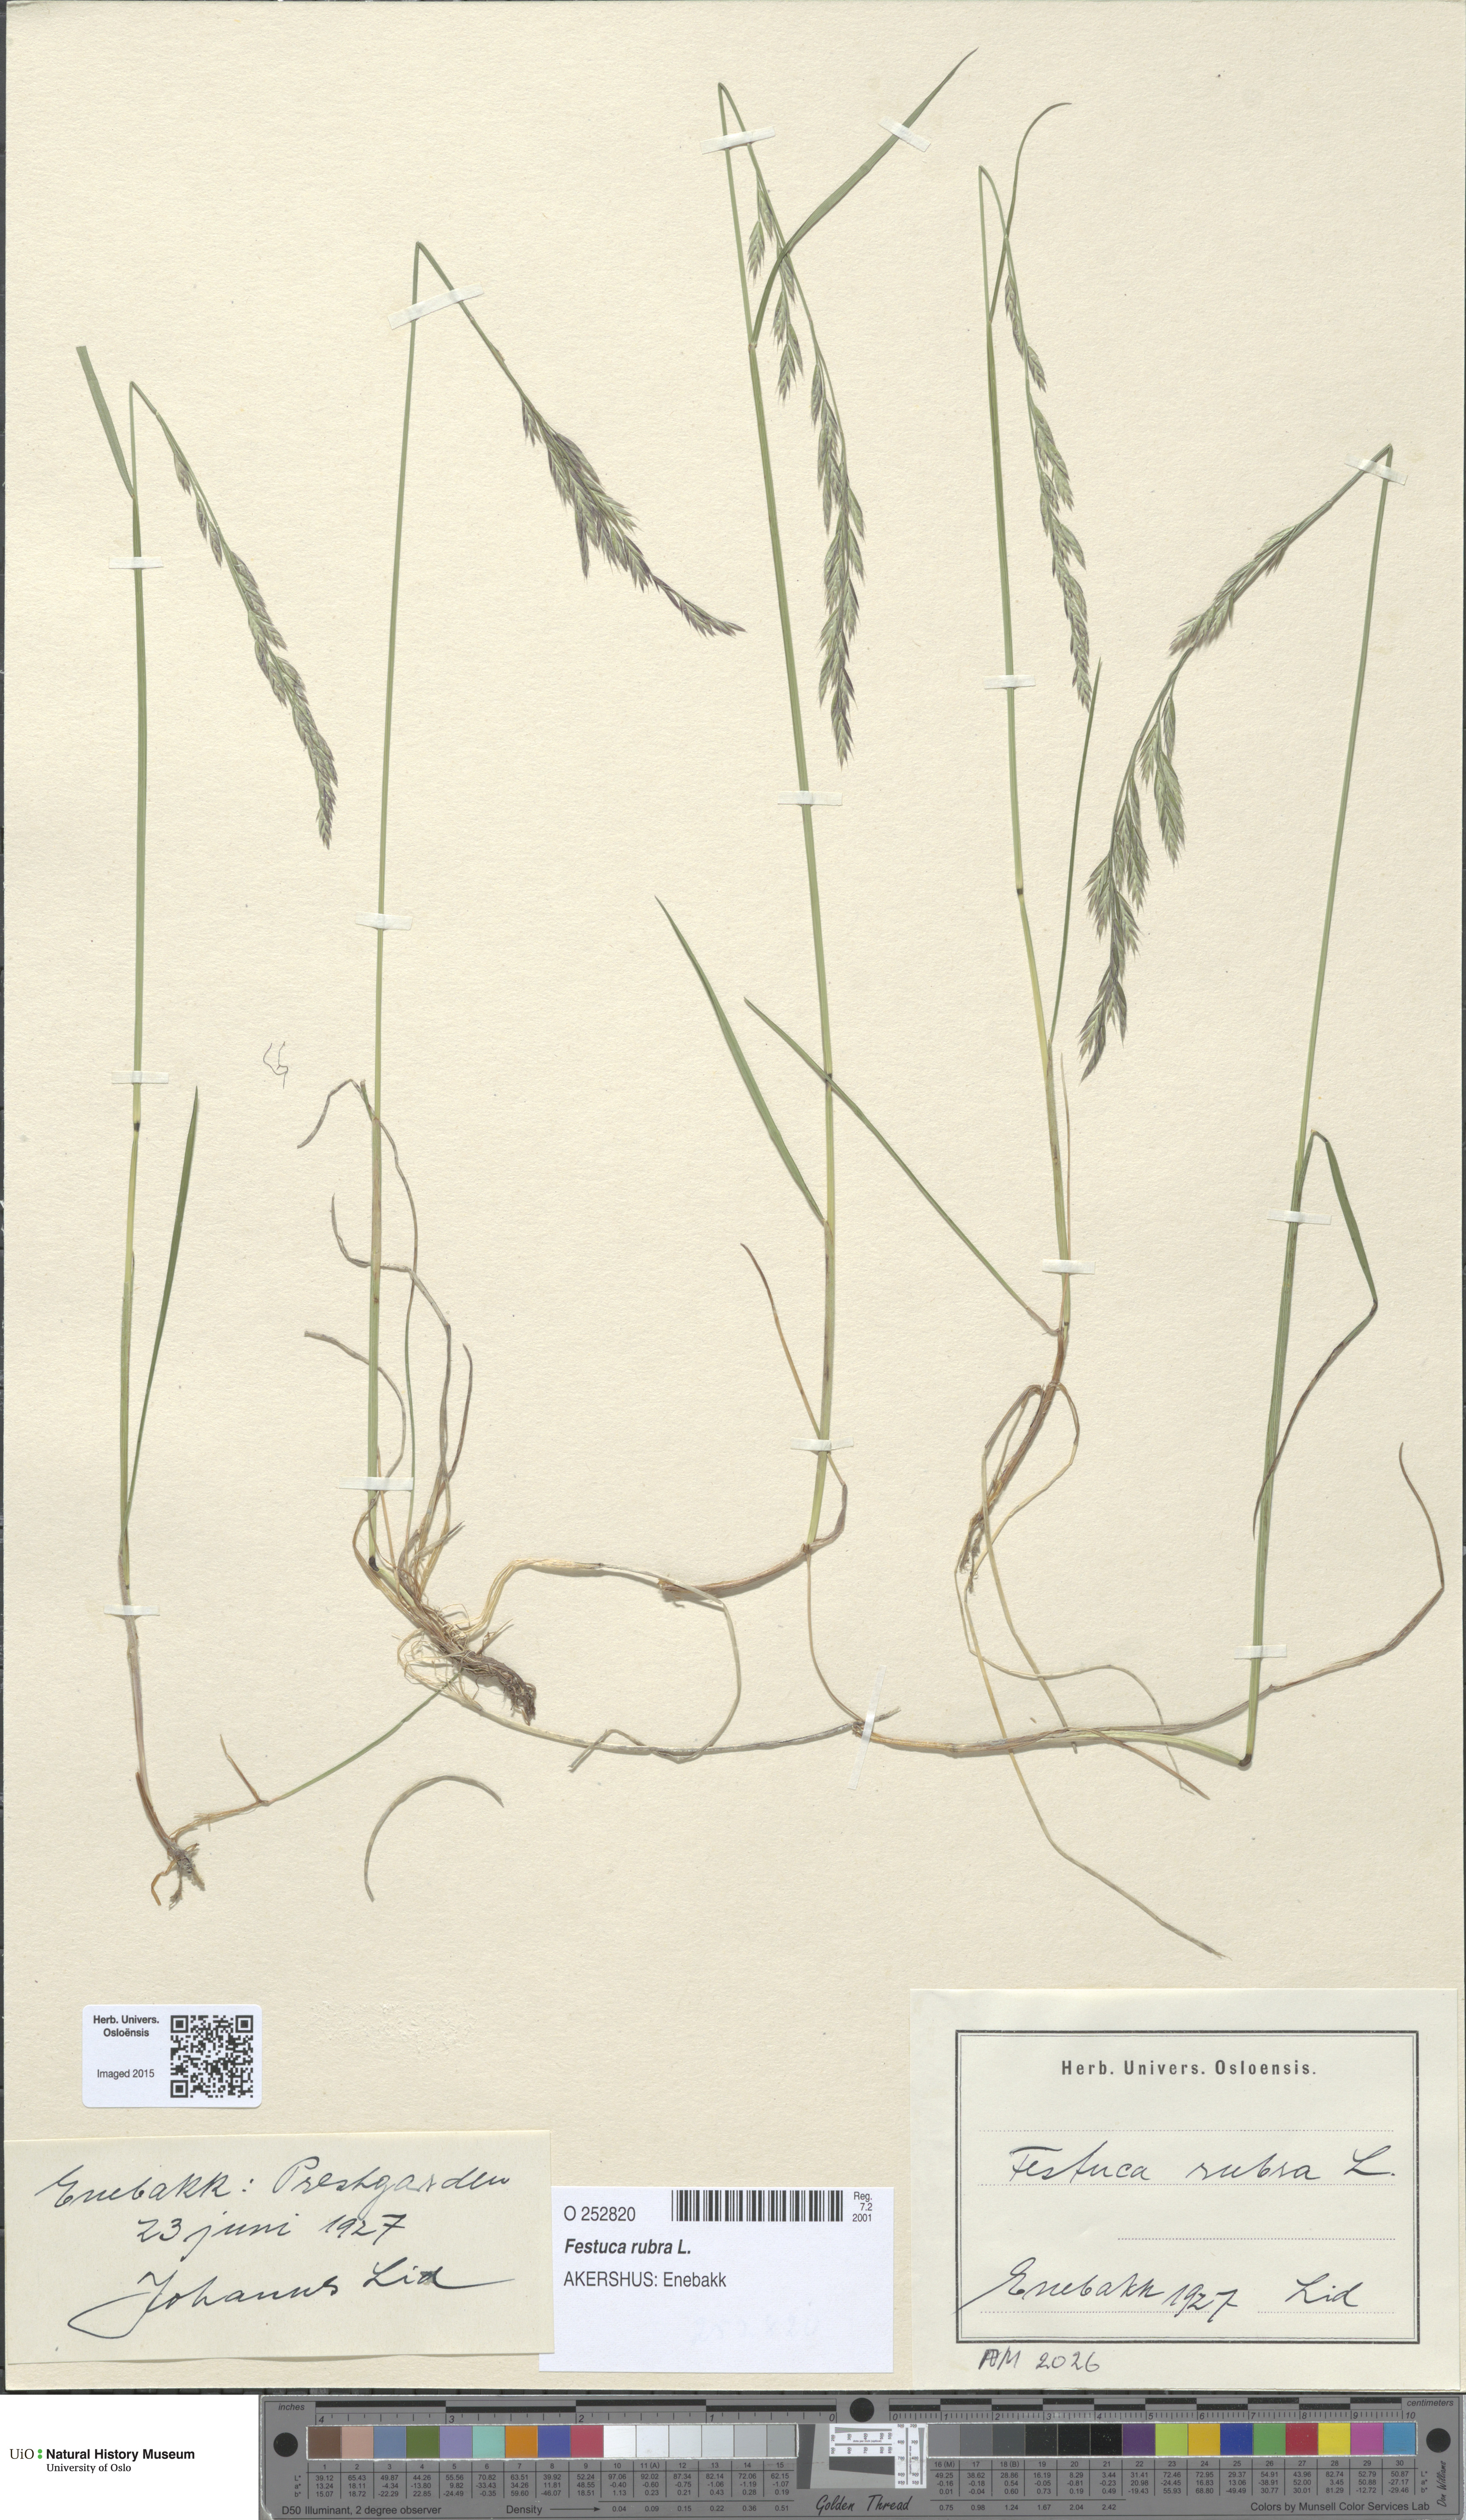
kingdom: Plantae
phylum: Tracheophyta
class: Liliopsida
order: Poales
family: Poaceae
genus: Festuca
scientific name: Festuca rubra
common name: Red fescue
